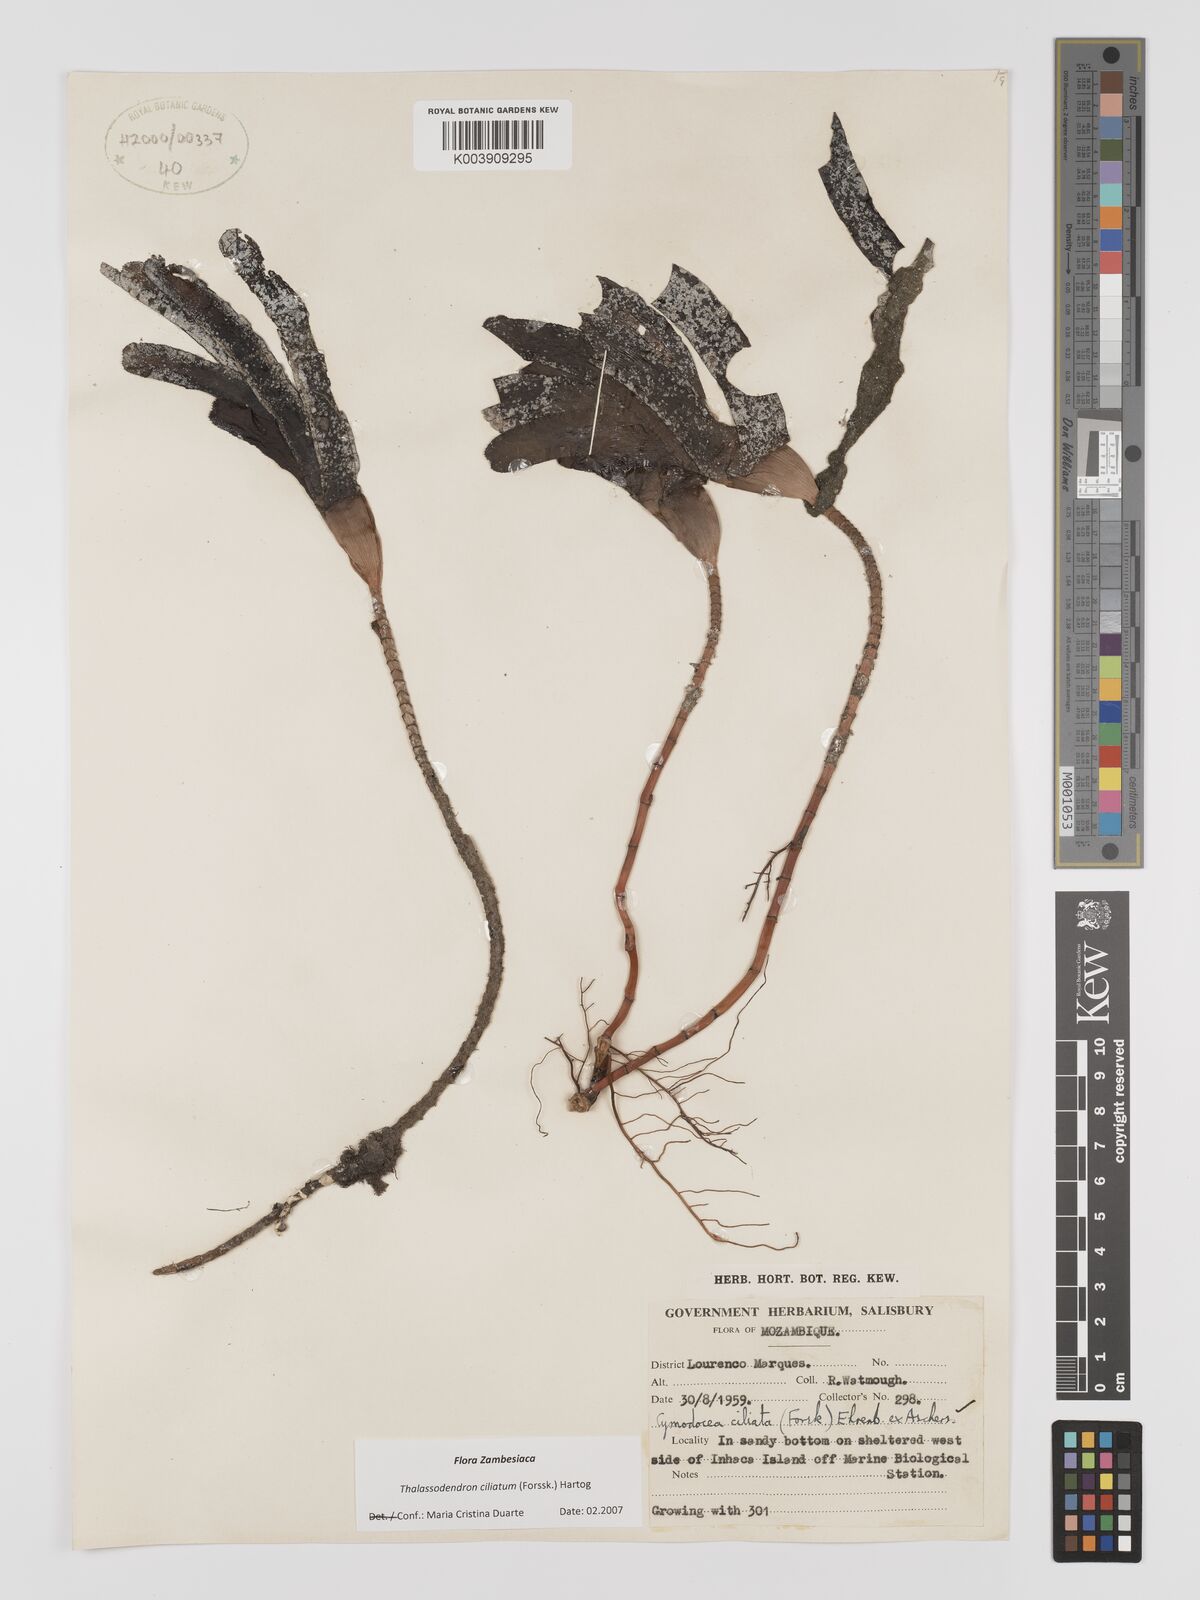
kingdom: Plantae
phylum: Tracheophyta
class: Liliopsida
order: Alismatales
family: Cymodoceaceae
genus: Thalassodendron
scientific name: Thalassodendron ciliatum
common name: Species code: tc
